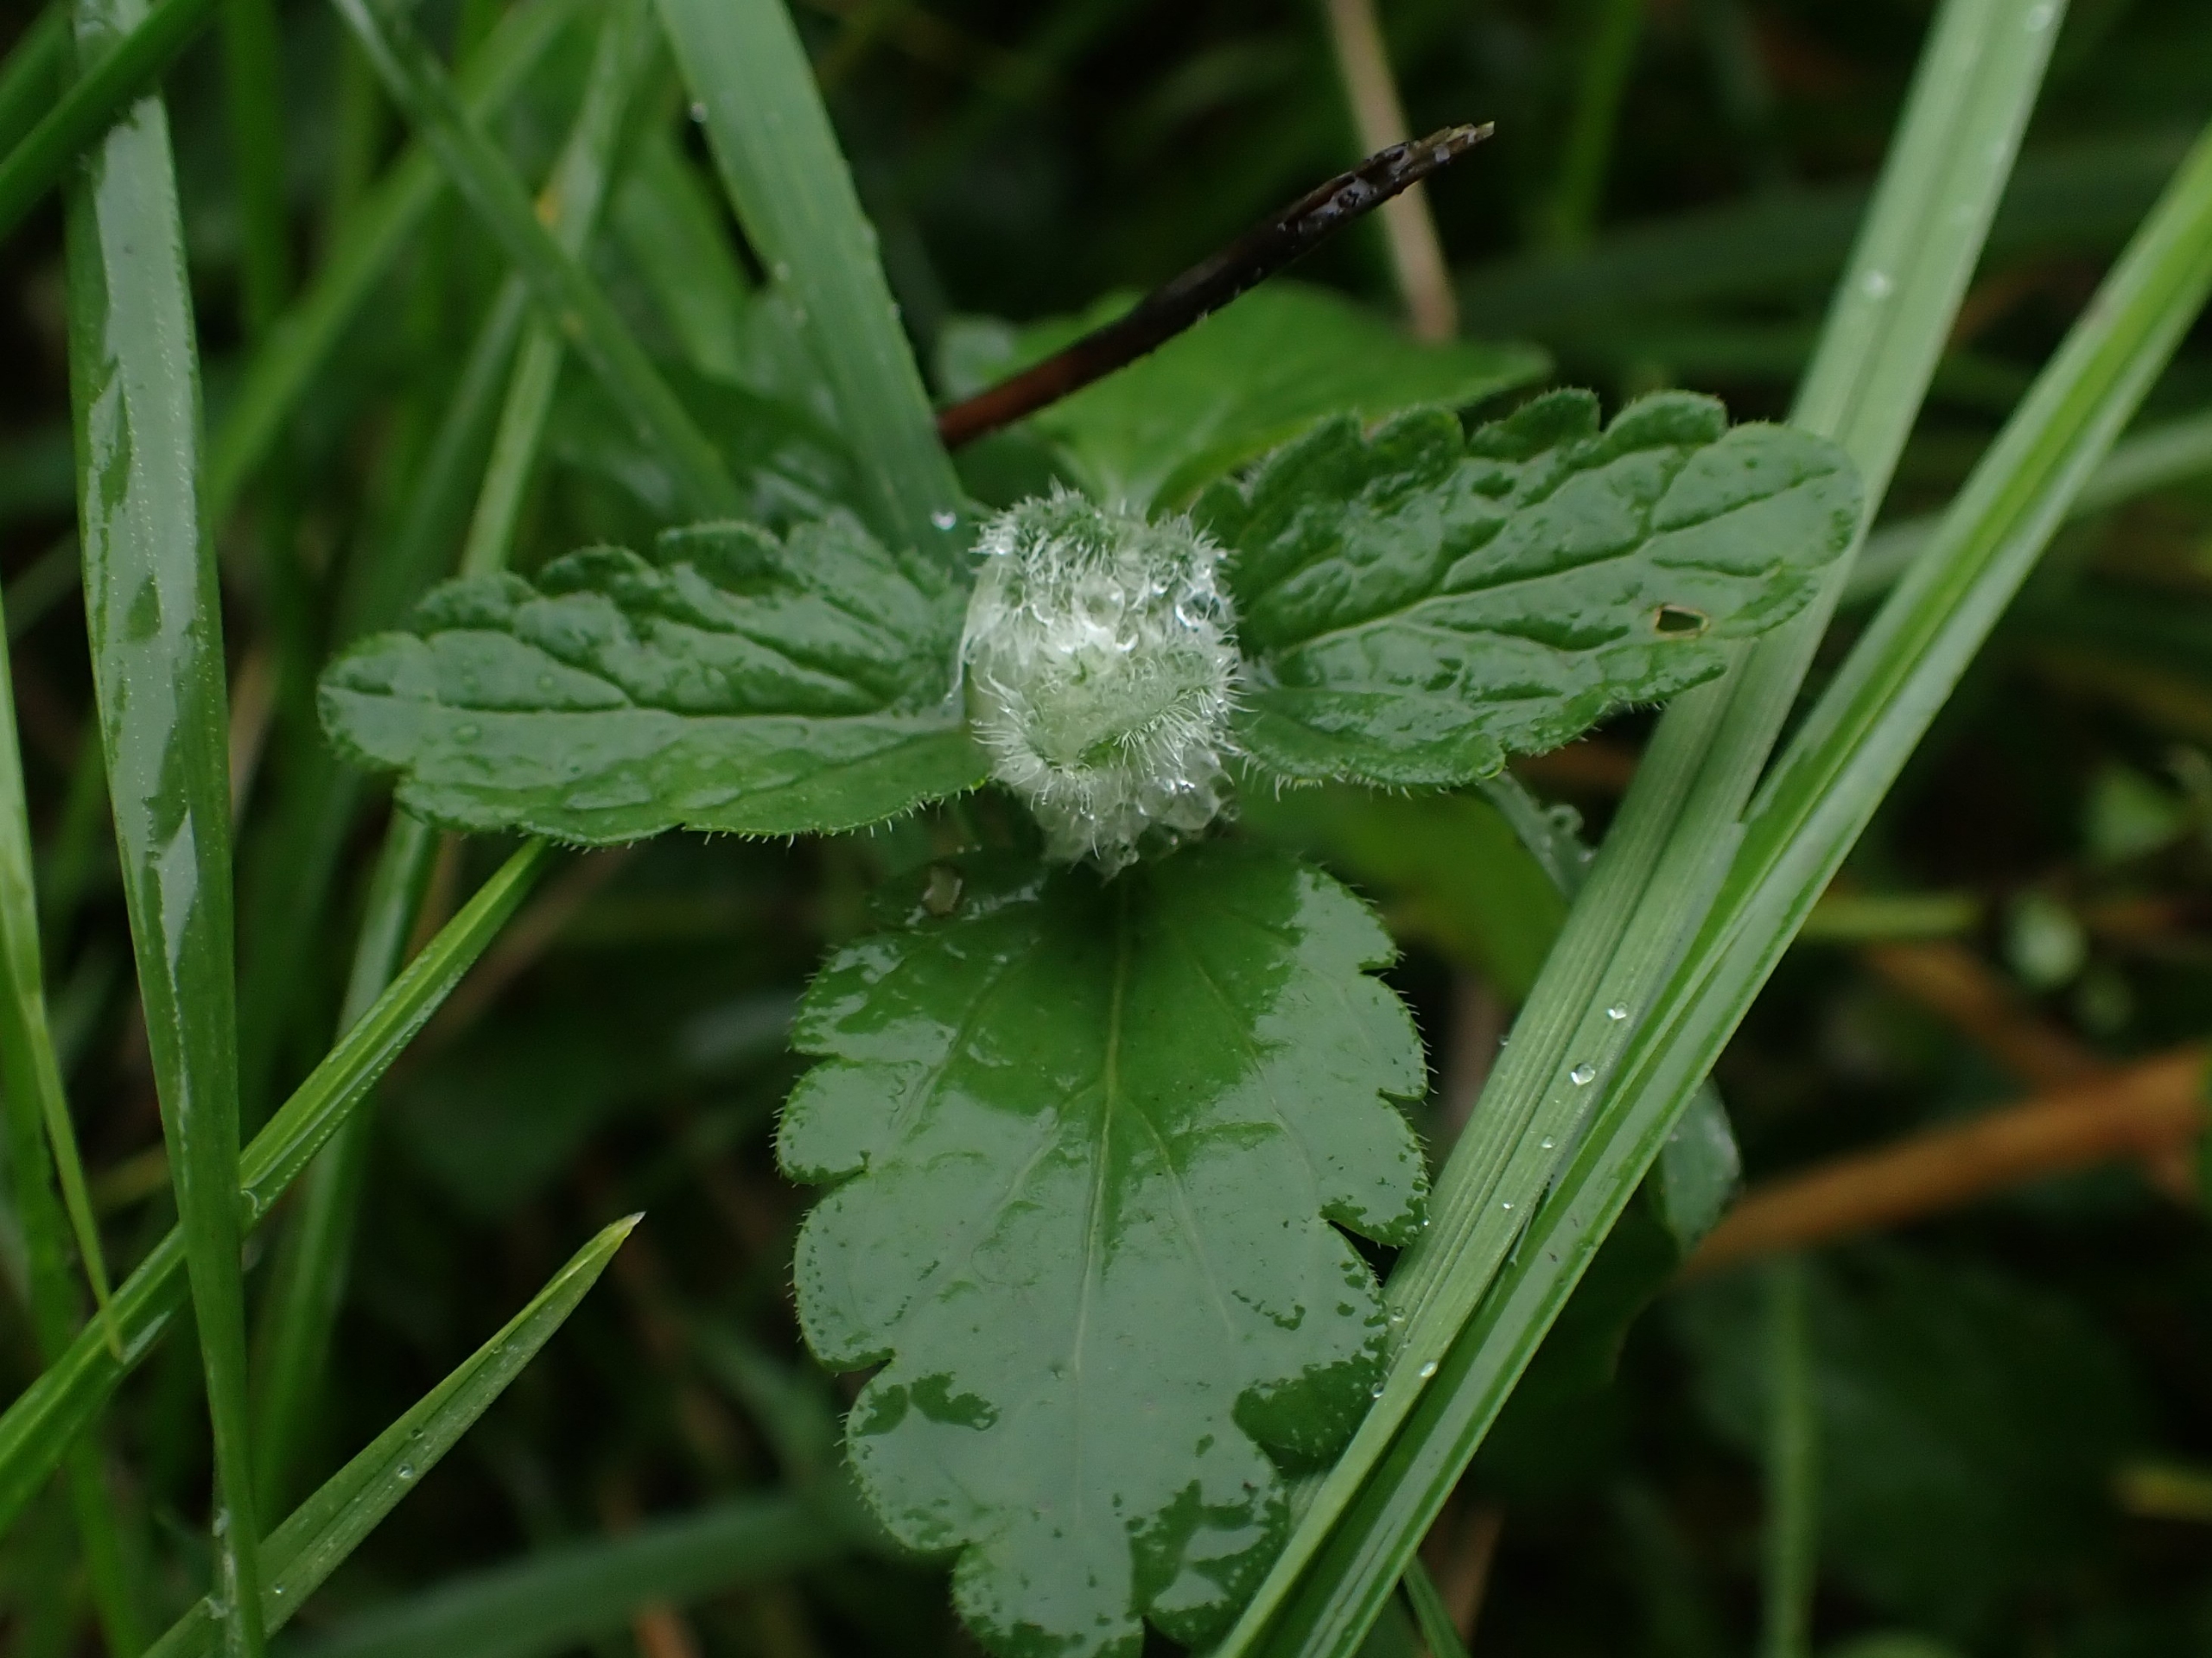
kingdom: Animalia
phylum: Arthropoda
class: Insecta
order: Diptera
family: Cecidomyiidae
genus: Jaapiella
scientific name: Jaapiella veronicae
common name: Ærenprisgalmyg
